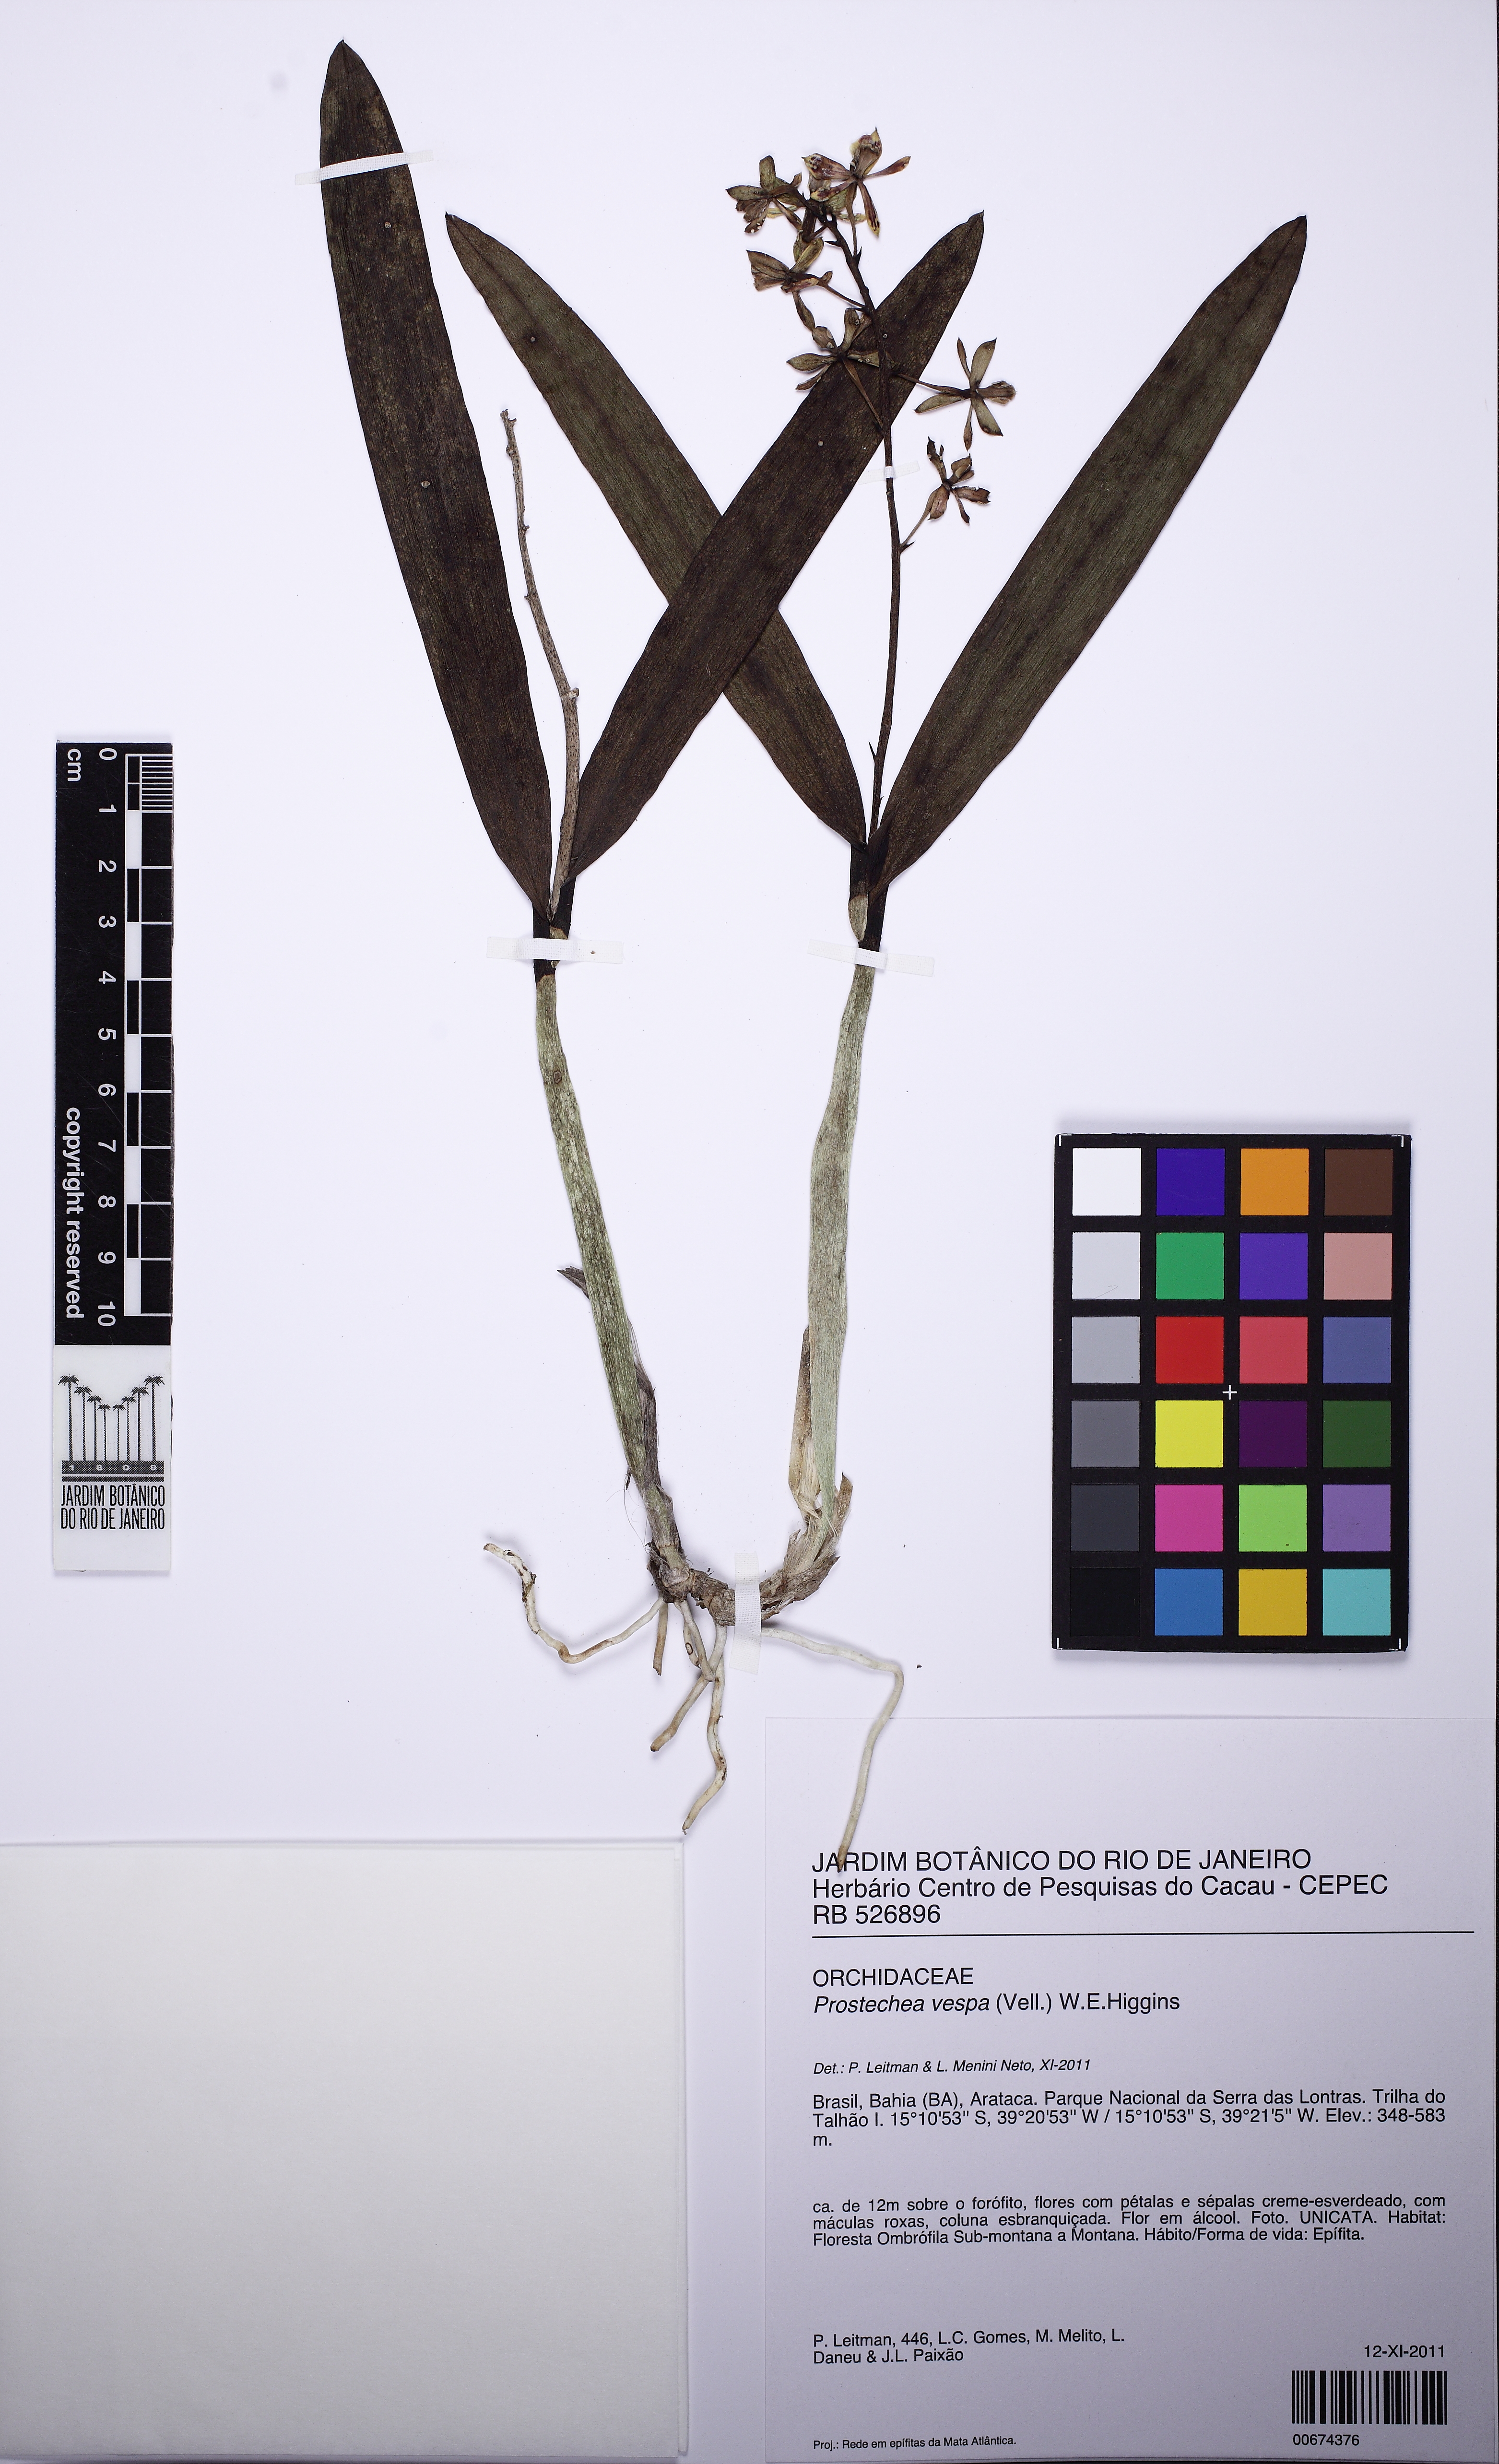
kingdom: Plantae
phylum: Tracheophyta
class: Liliopsida
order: Asparagales
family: Orchidaceae
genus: Prosthechea
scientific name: Prosthechea vespa
